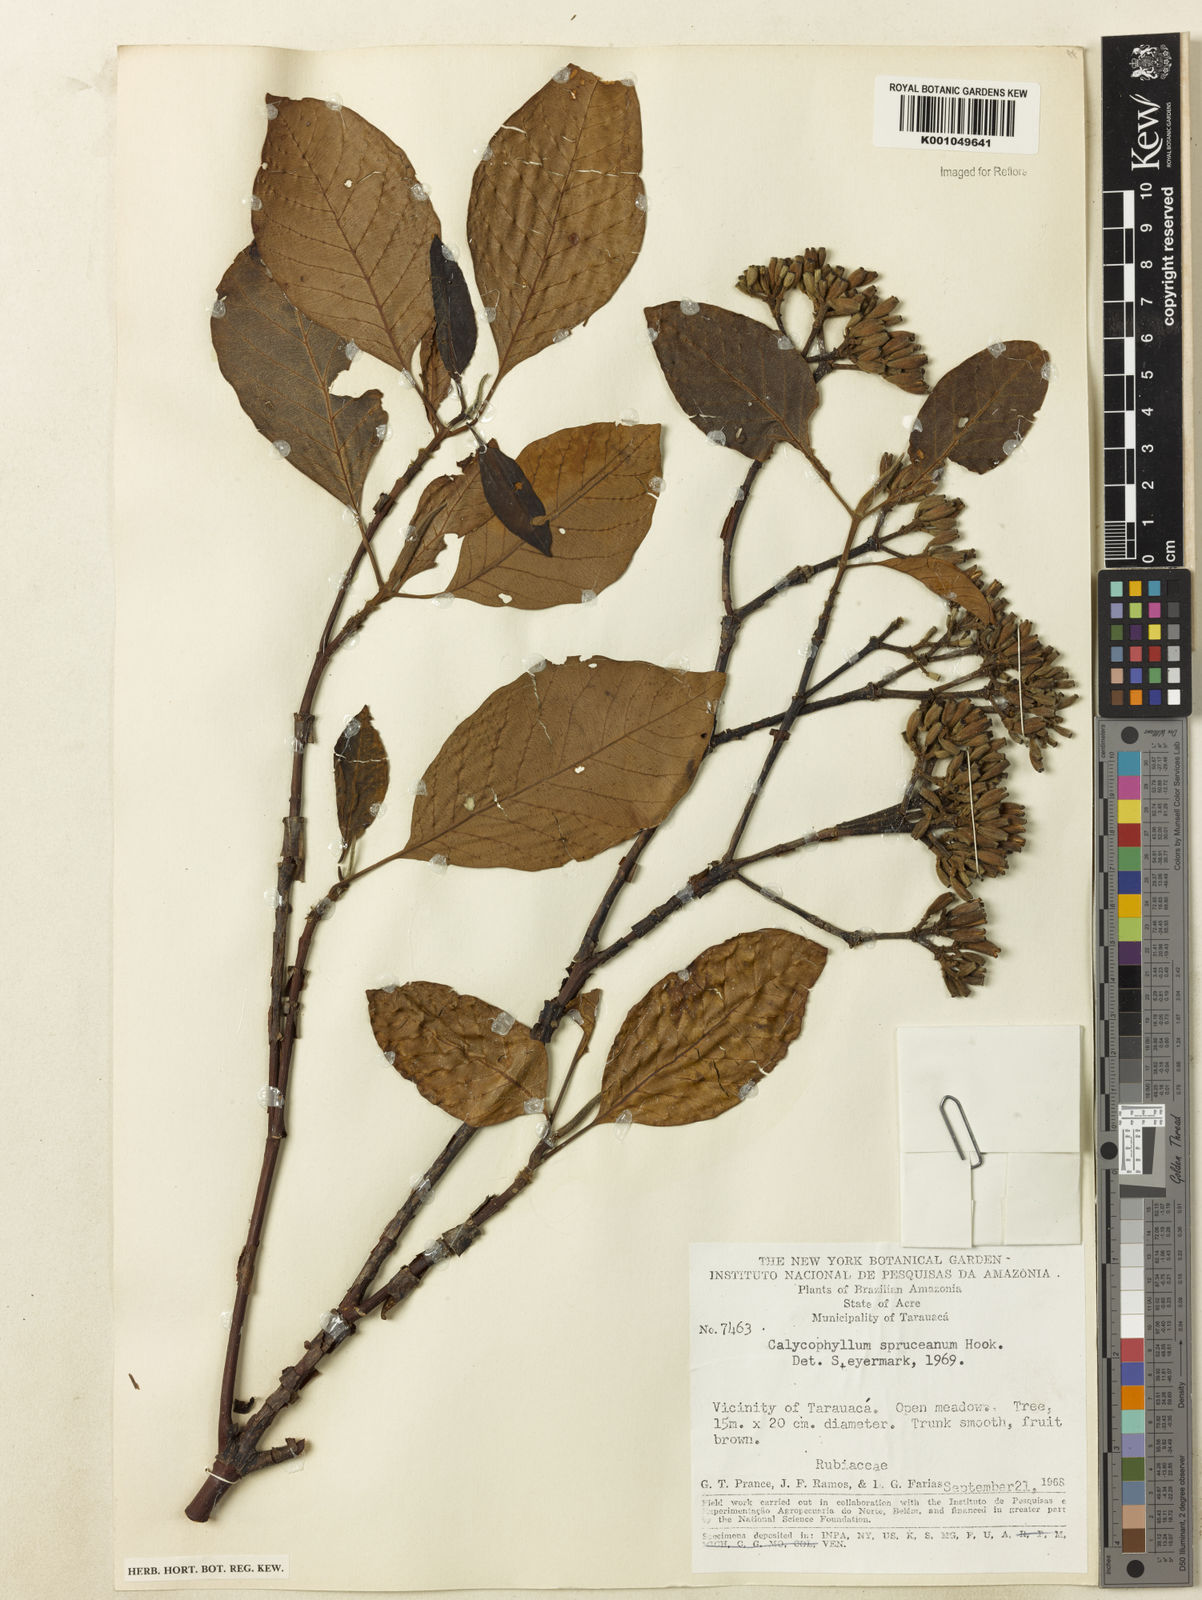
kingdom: Plantae
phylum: Tracheophyta
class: Magnoliopsida
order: Gentianales
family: Rubiaceae
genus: Calycophyllum
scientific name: Calycophyllum spruceanum
